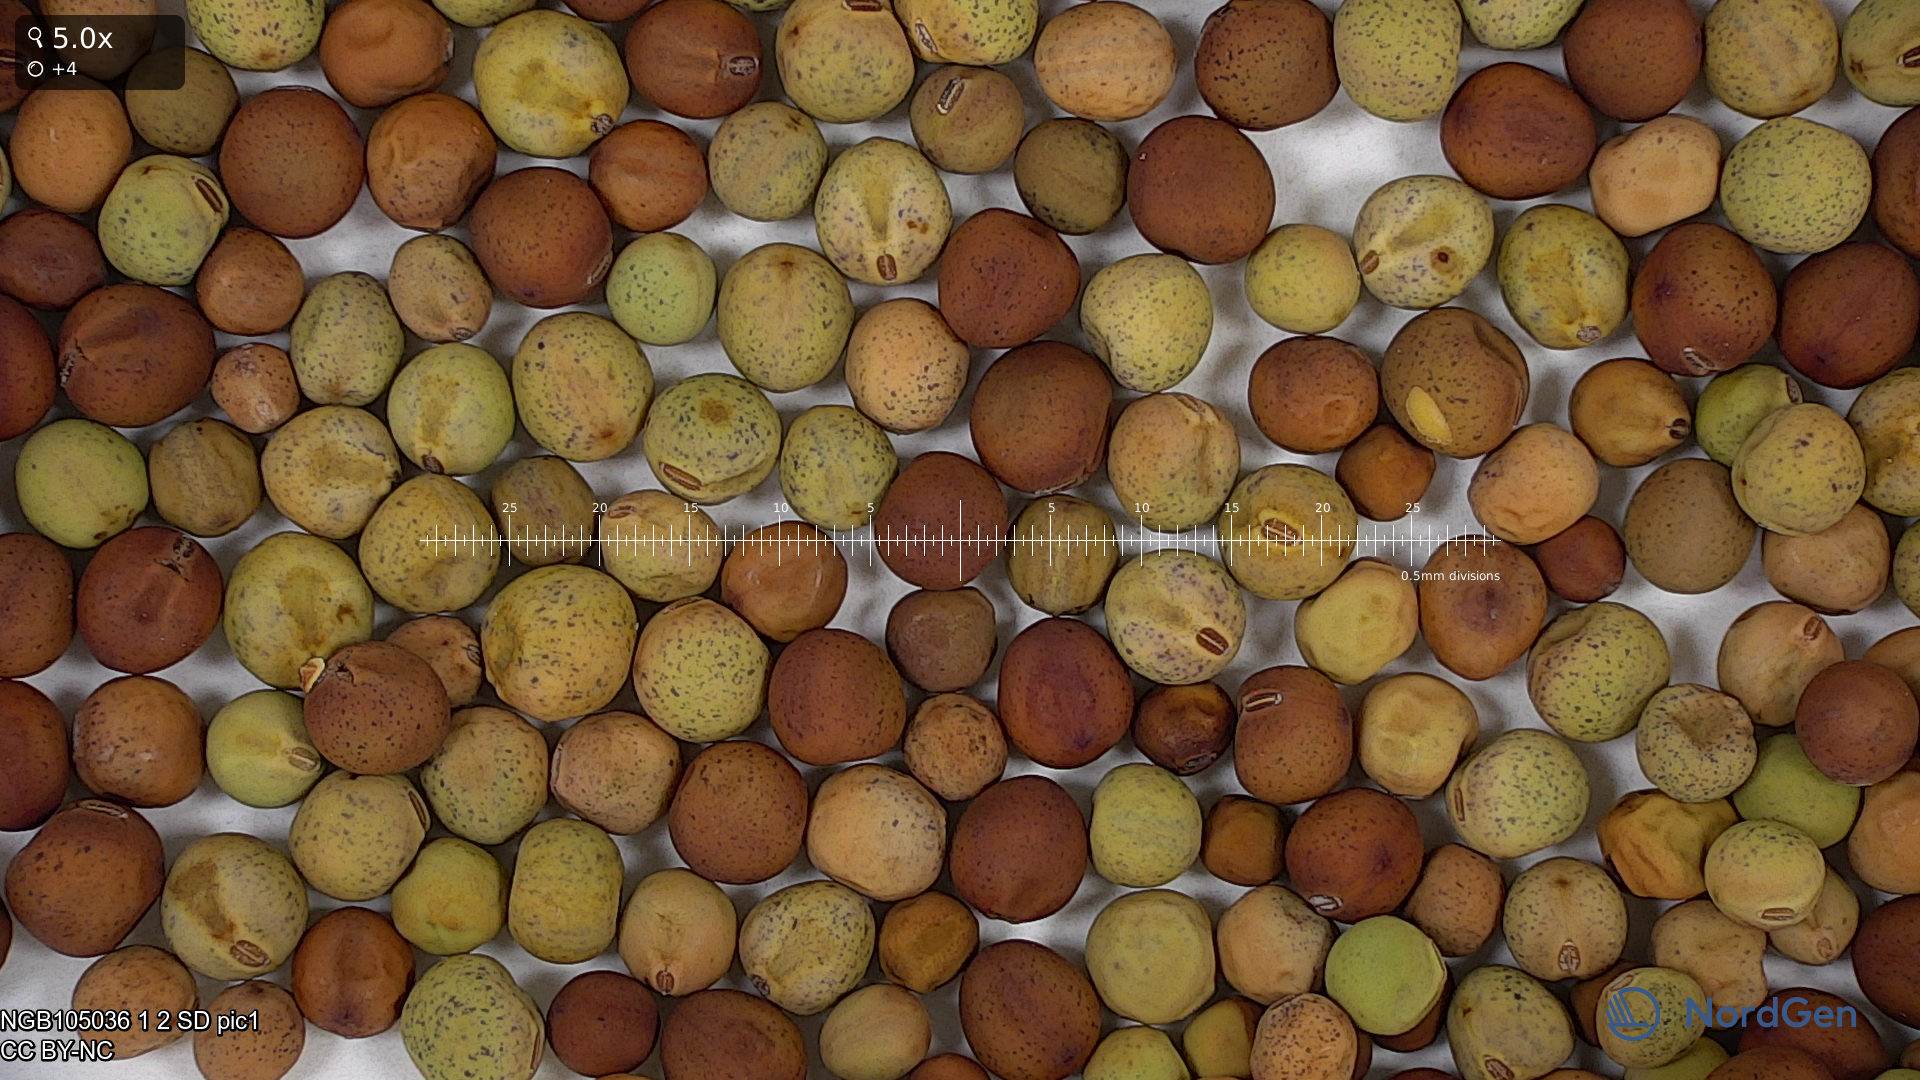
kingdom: Plantae
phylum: Tracheophyta
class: Magnoliopsida
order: Fabales
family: Fabaceae
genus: Lathyrus
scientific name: Lathyrus oleraceus
